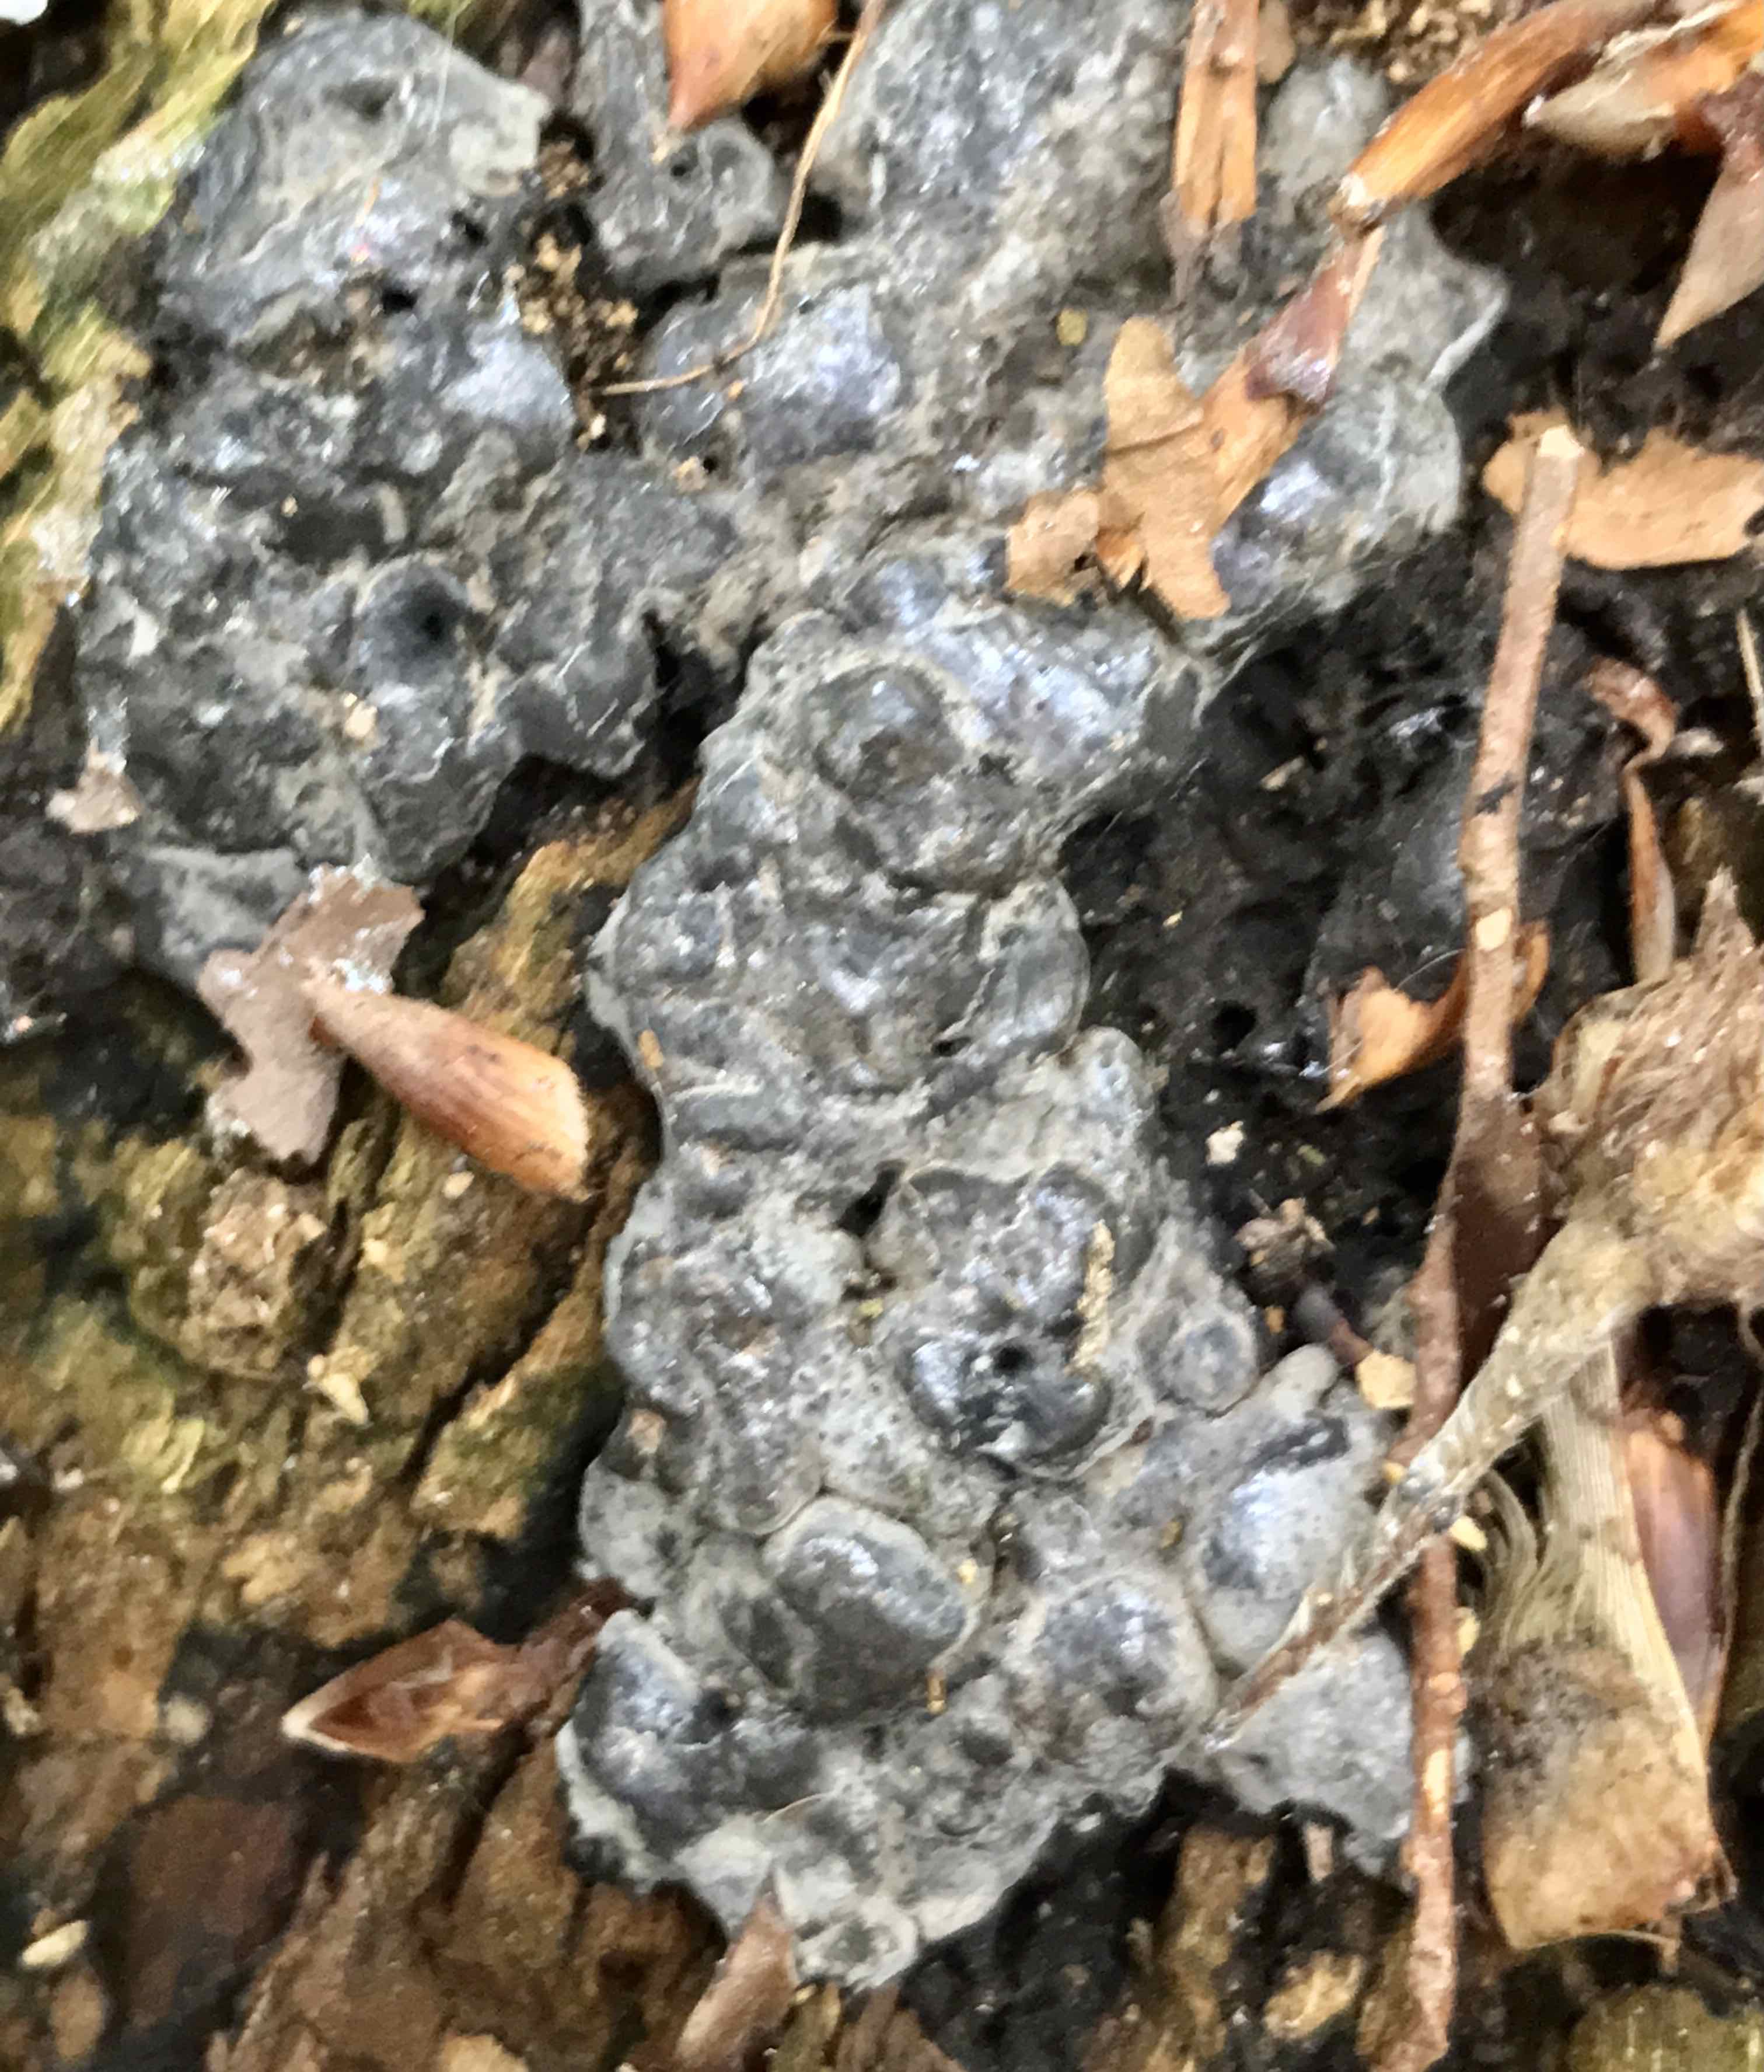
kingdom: Fungi
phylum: Ascomycota
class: Sordariomycetes
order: Xylariales
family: Xylariaceae
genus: Kretzschmaria
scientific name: Kretzschmaria deusta
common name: stor kulsvamp
